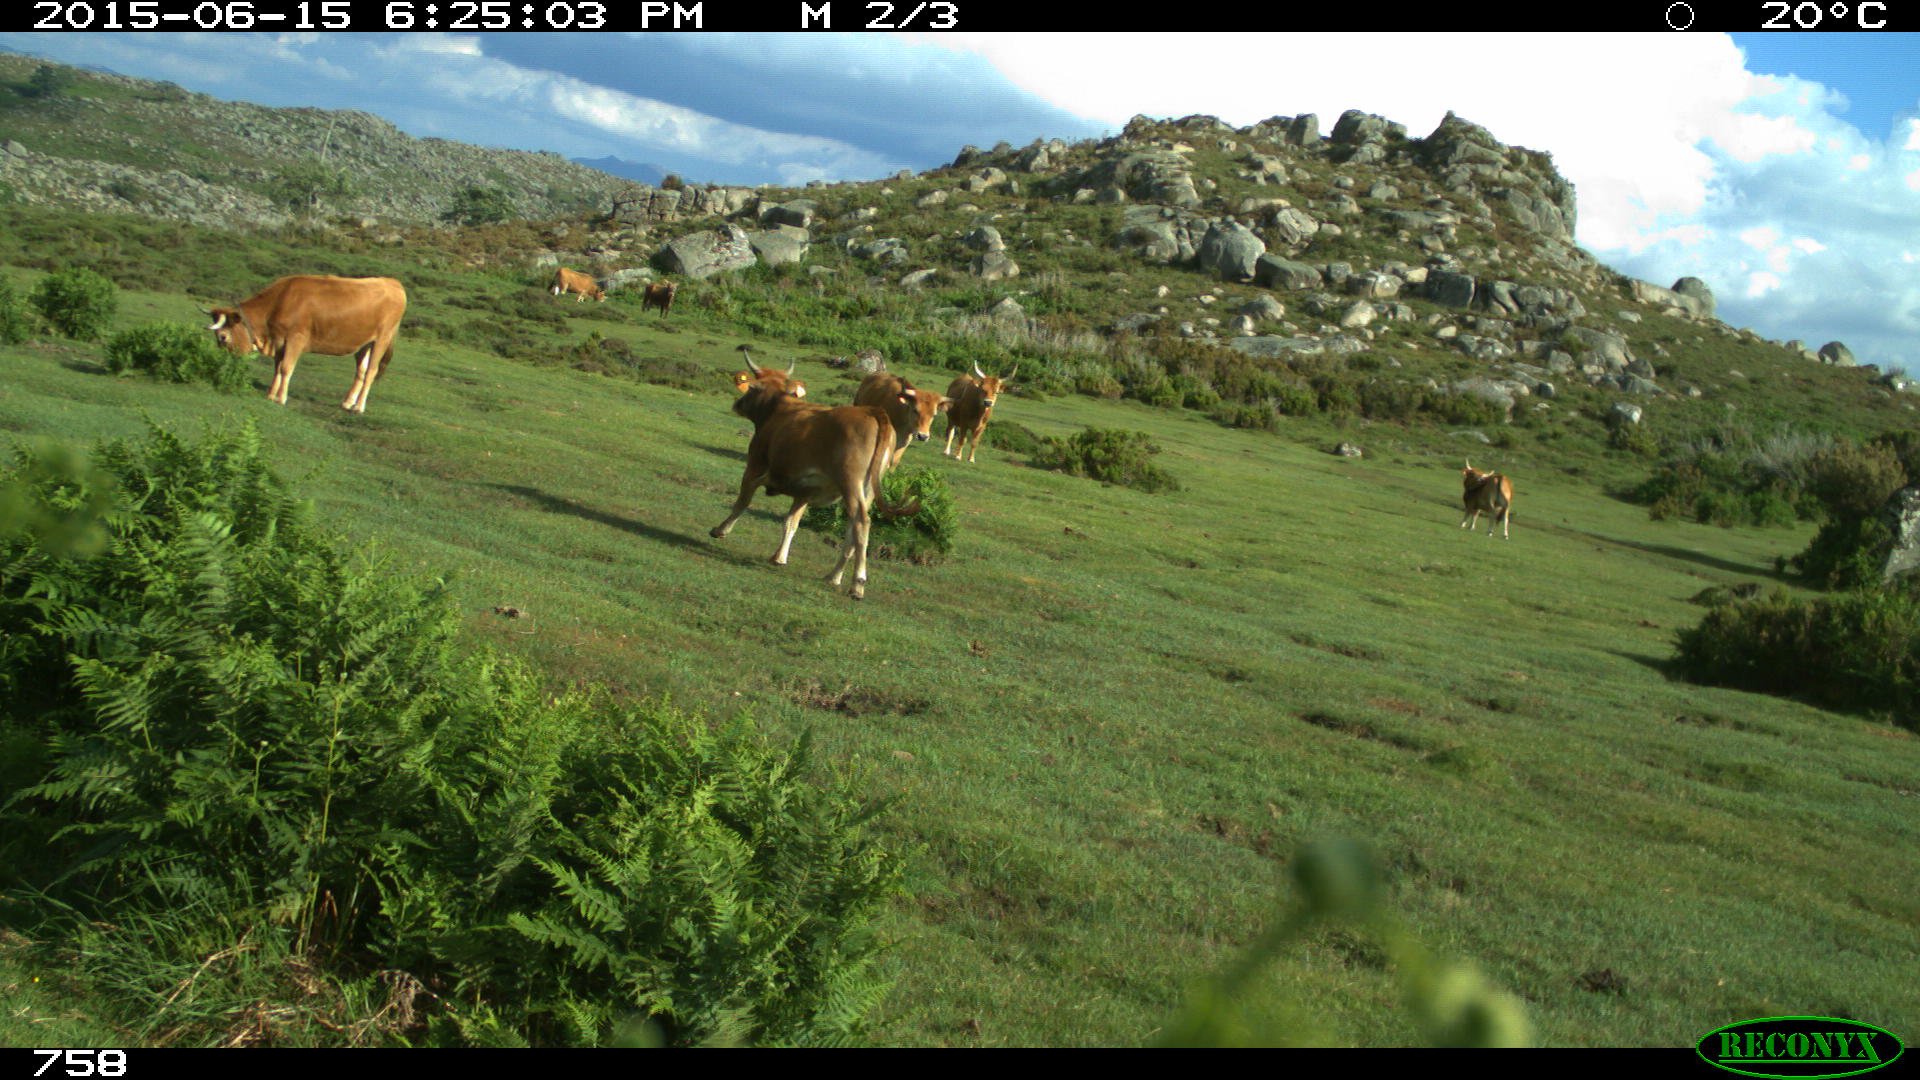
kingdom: Animalia
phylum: Chordata
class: Mammalia
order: Artiodactyla
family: Bovidae
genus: Bos
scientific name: Bos taurus
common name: Domesticated cattle
